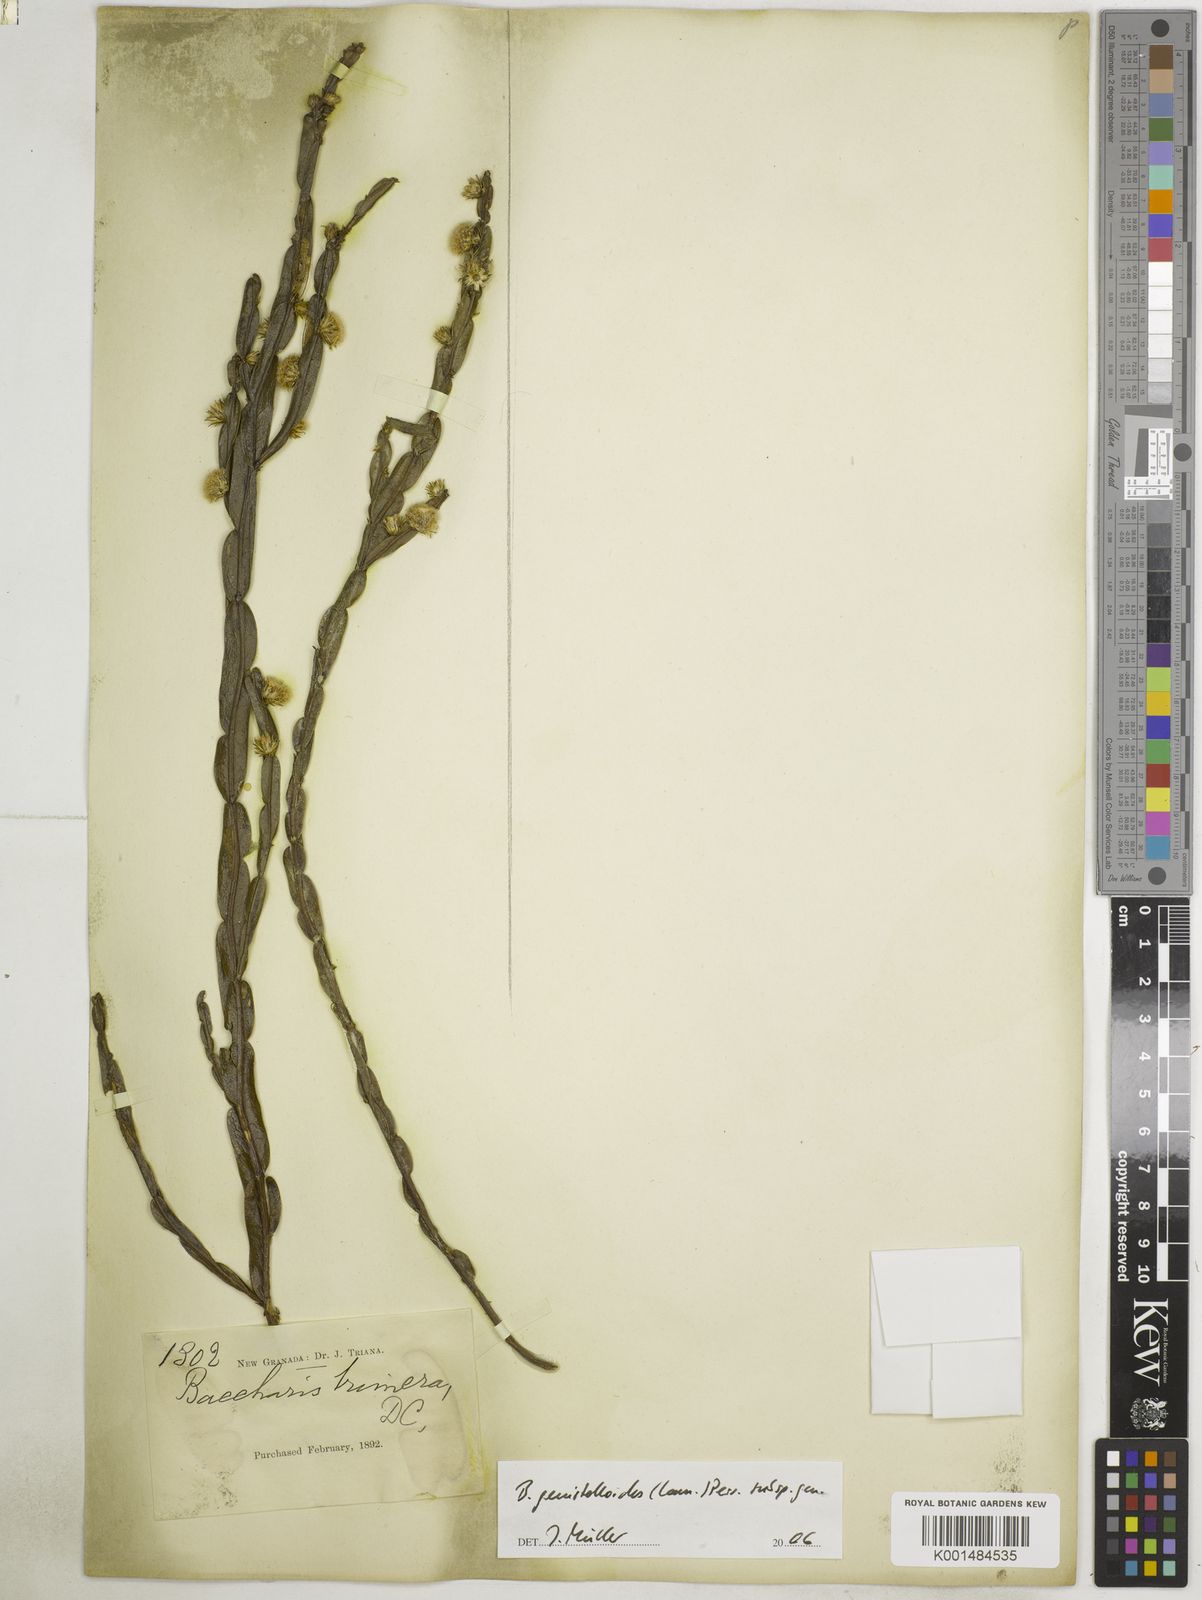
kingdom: Plantae
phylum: Tracheophyta
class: Magnoliopsida
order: Asterales
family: Asteraceae
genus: Baccharis
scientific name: Baccharis trimera
